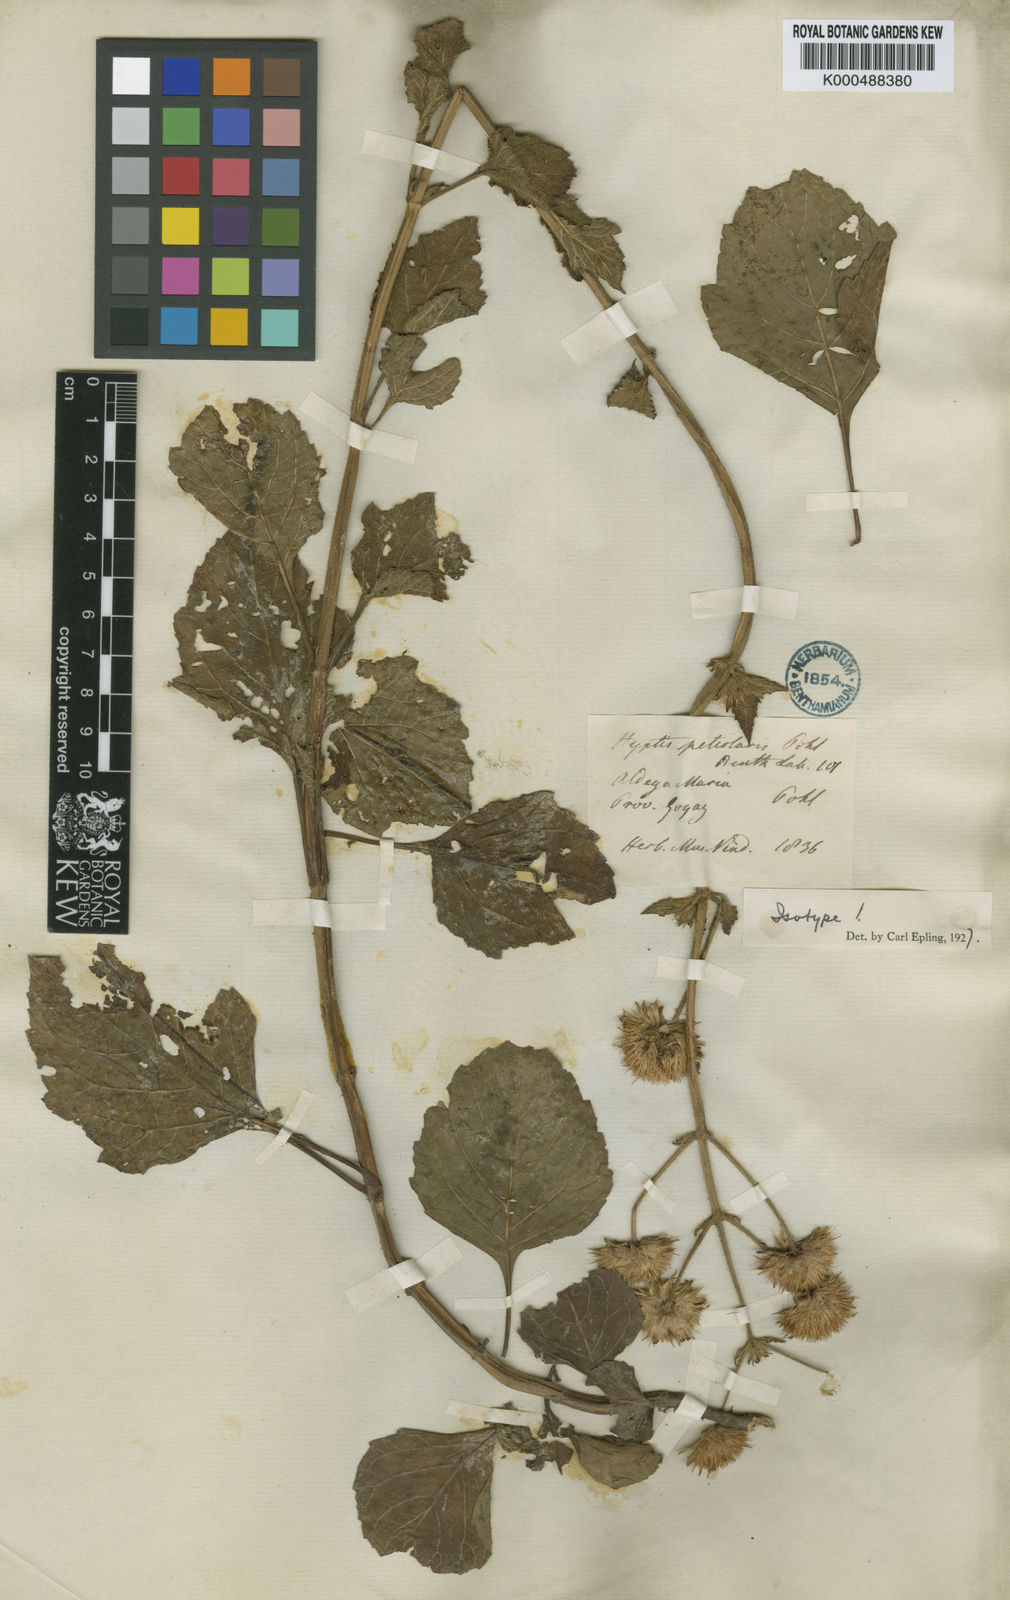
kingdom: Plantae
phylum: Tracheophyta
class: Magnoliopsida
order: Lamiales
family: Lamiaceae
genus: Hyptis
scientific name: Hyptis petiolaris
